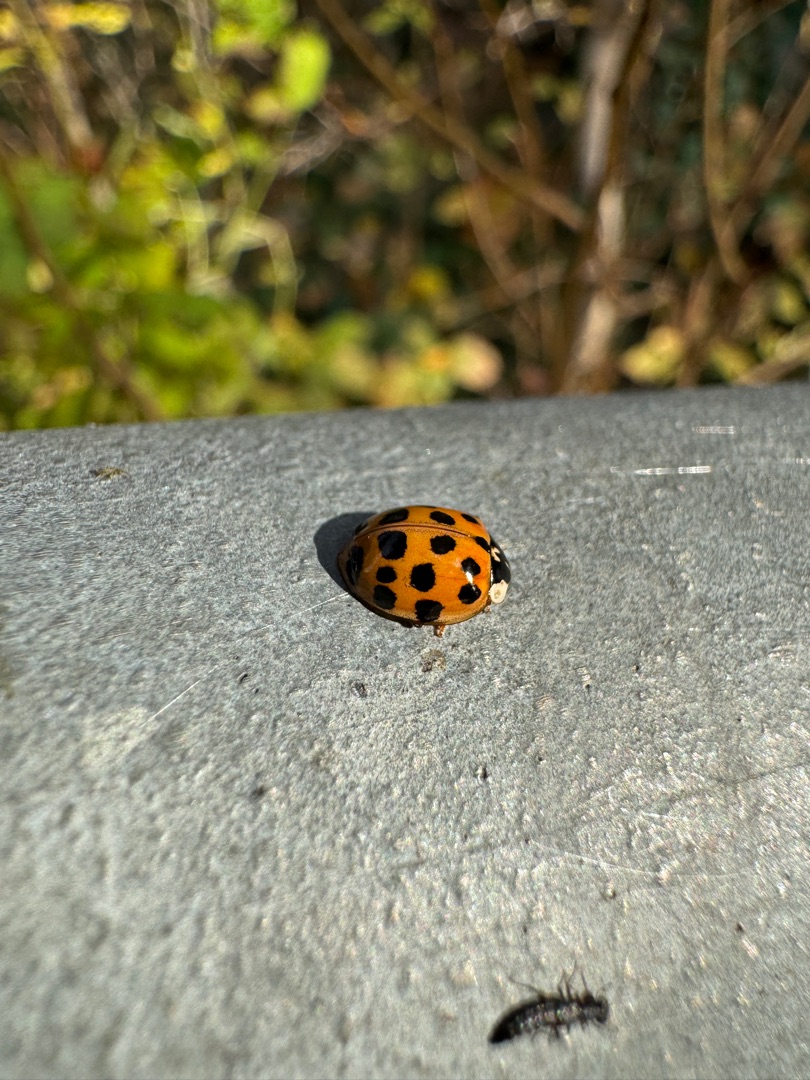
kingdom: Animalia
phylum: Arthropoda
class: Insecta
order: Coleoptera
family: Coccinellidae
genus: Harmonia
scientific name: Harmonia axyridis
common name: Harlekinmariehøne
